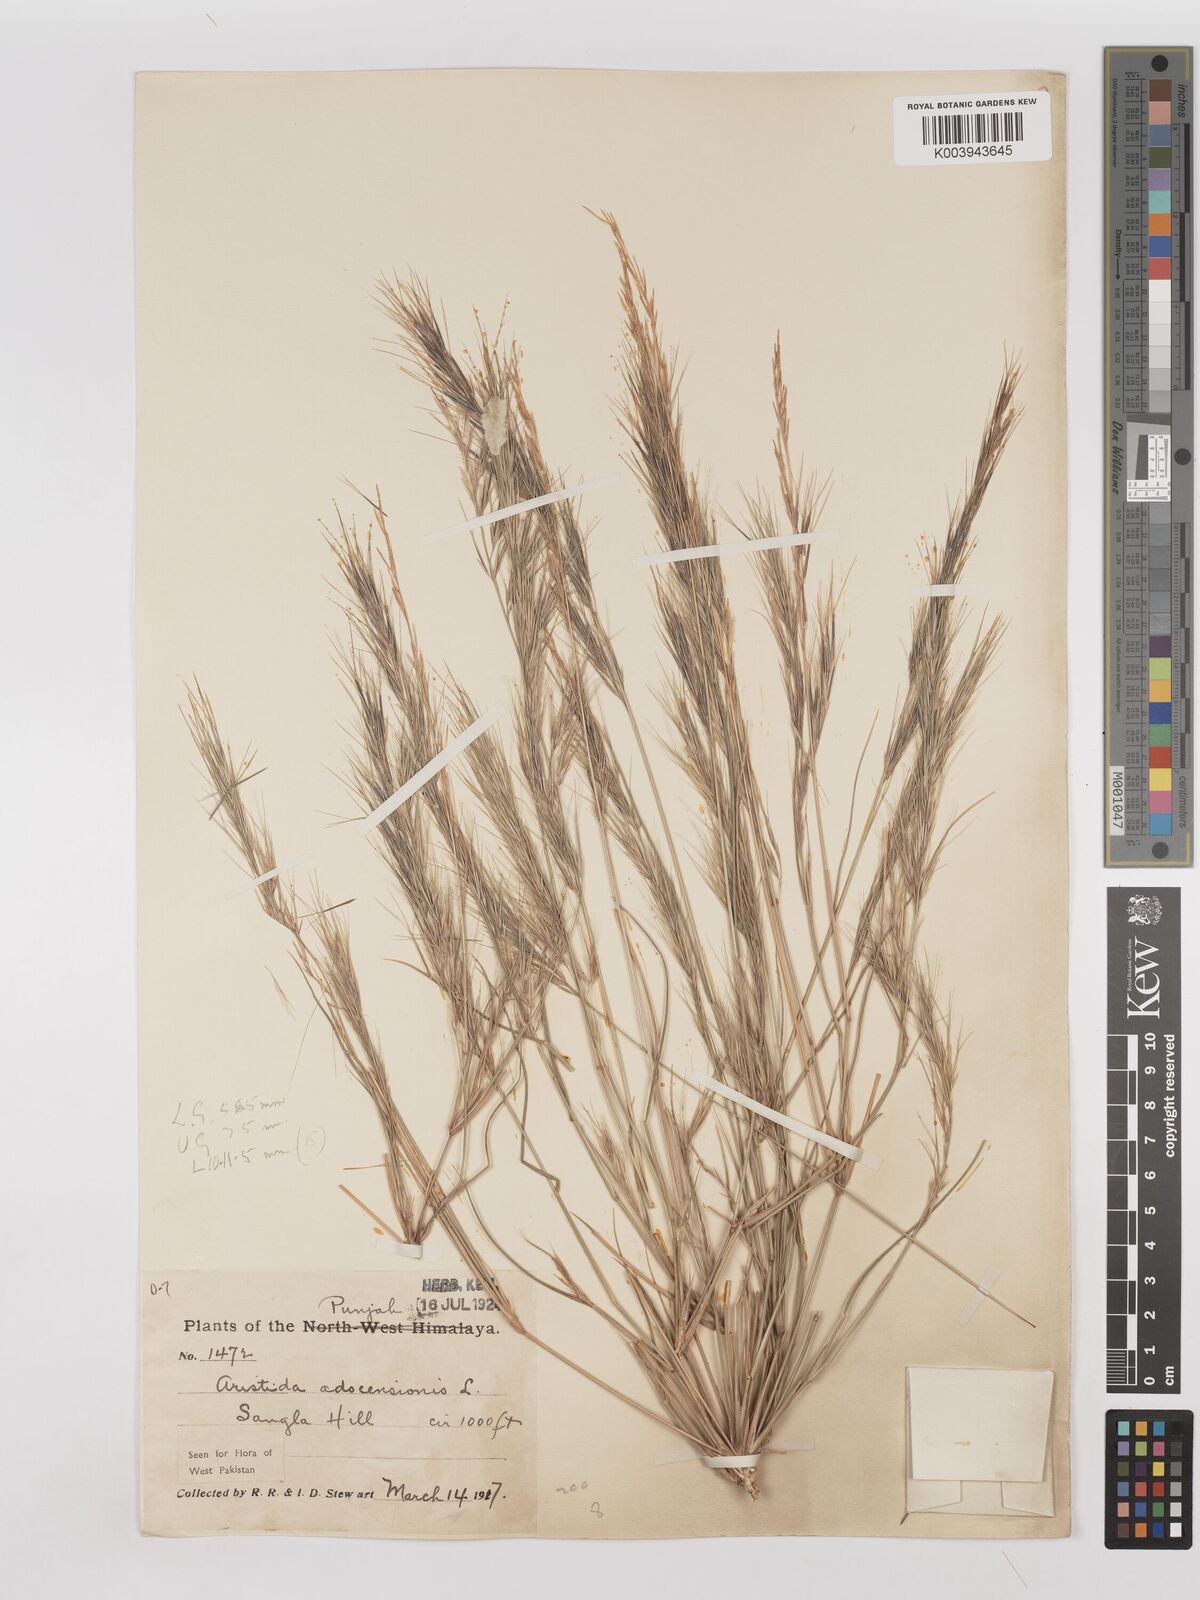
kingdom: Plantae
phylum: Tracheophyta
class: Liliopsida
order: Poales
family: Poaceae
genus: Aristida
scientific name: Aristida adscensionis
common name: Sixweeks threeawn
